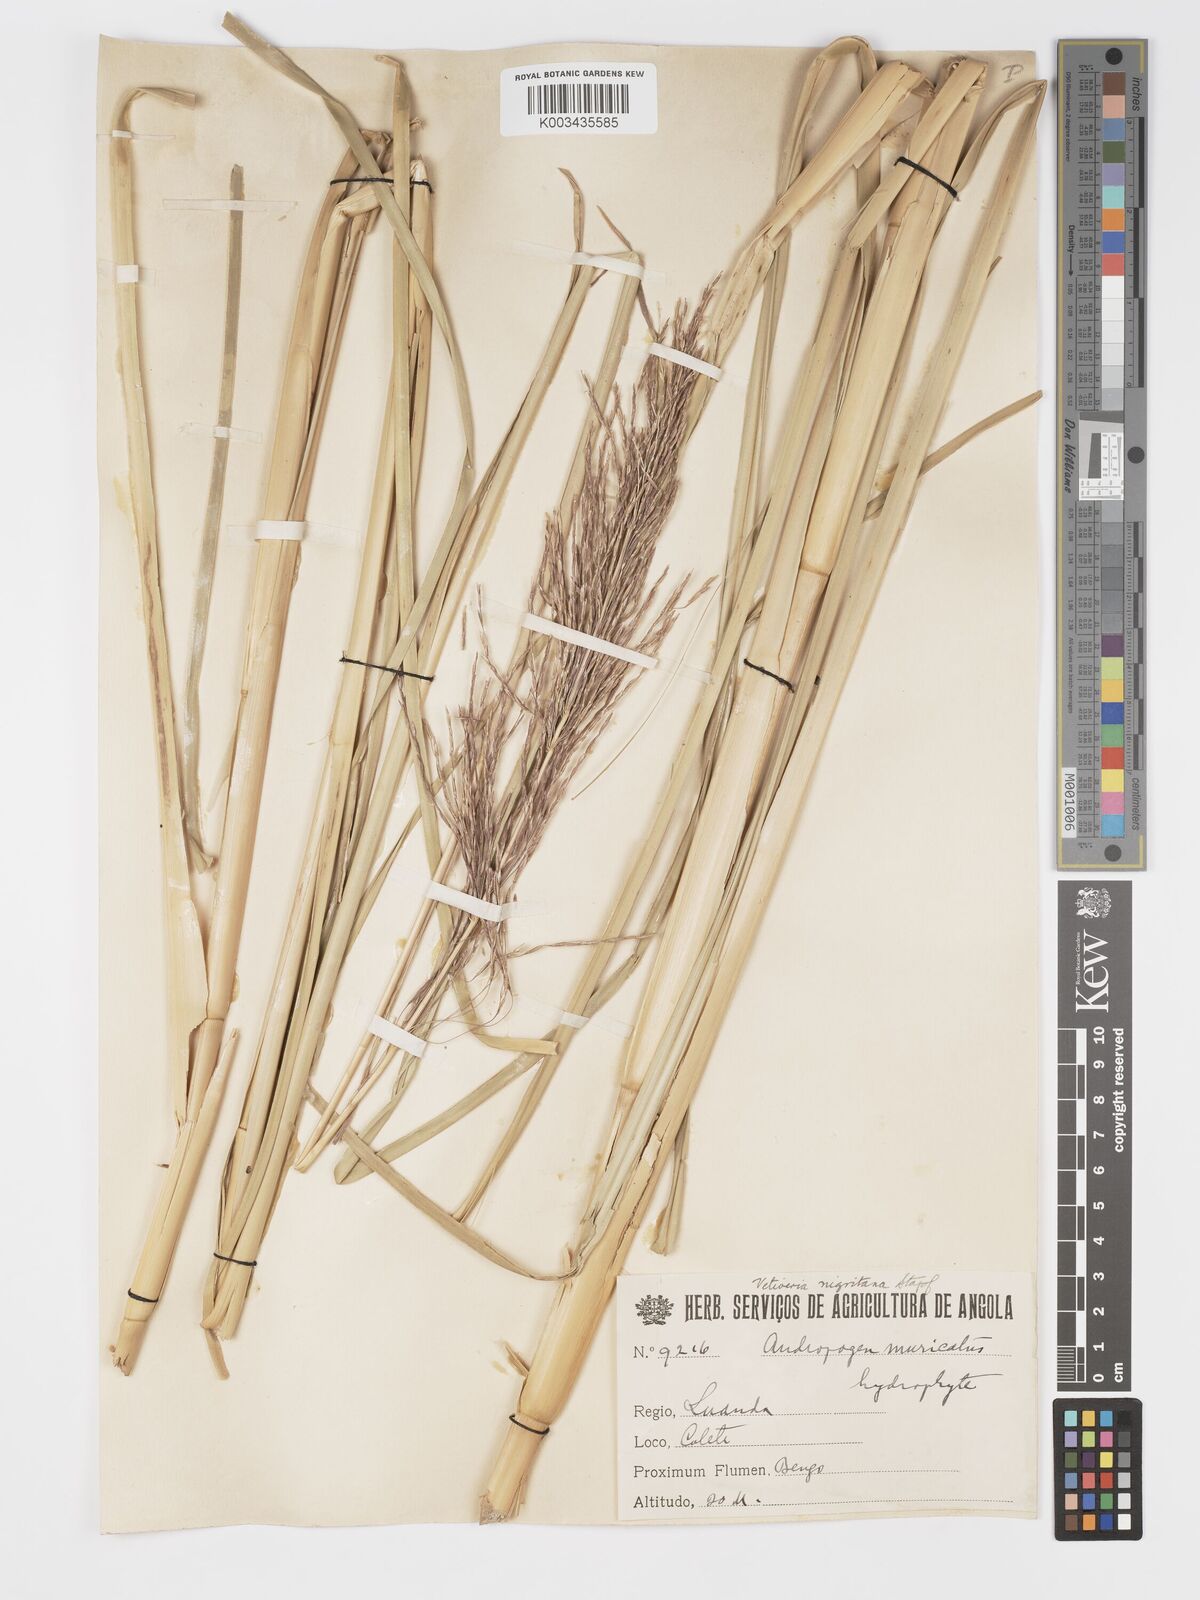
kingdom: Plantae
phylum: Tracheophyta
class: Liliopsida
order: Poales
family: Poaceae
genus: Chrysopogon
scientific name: Chrysopogon nigritanus
